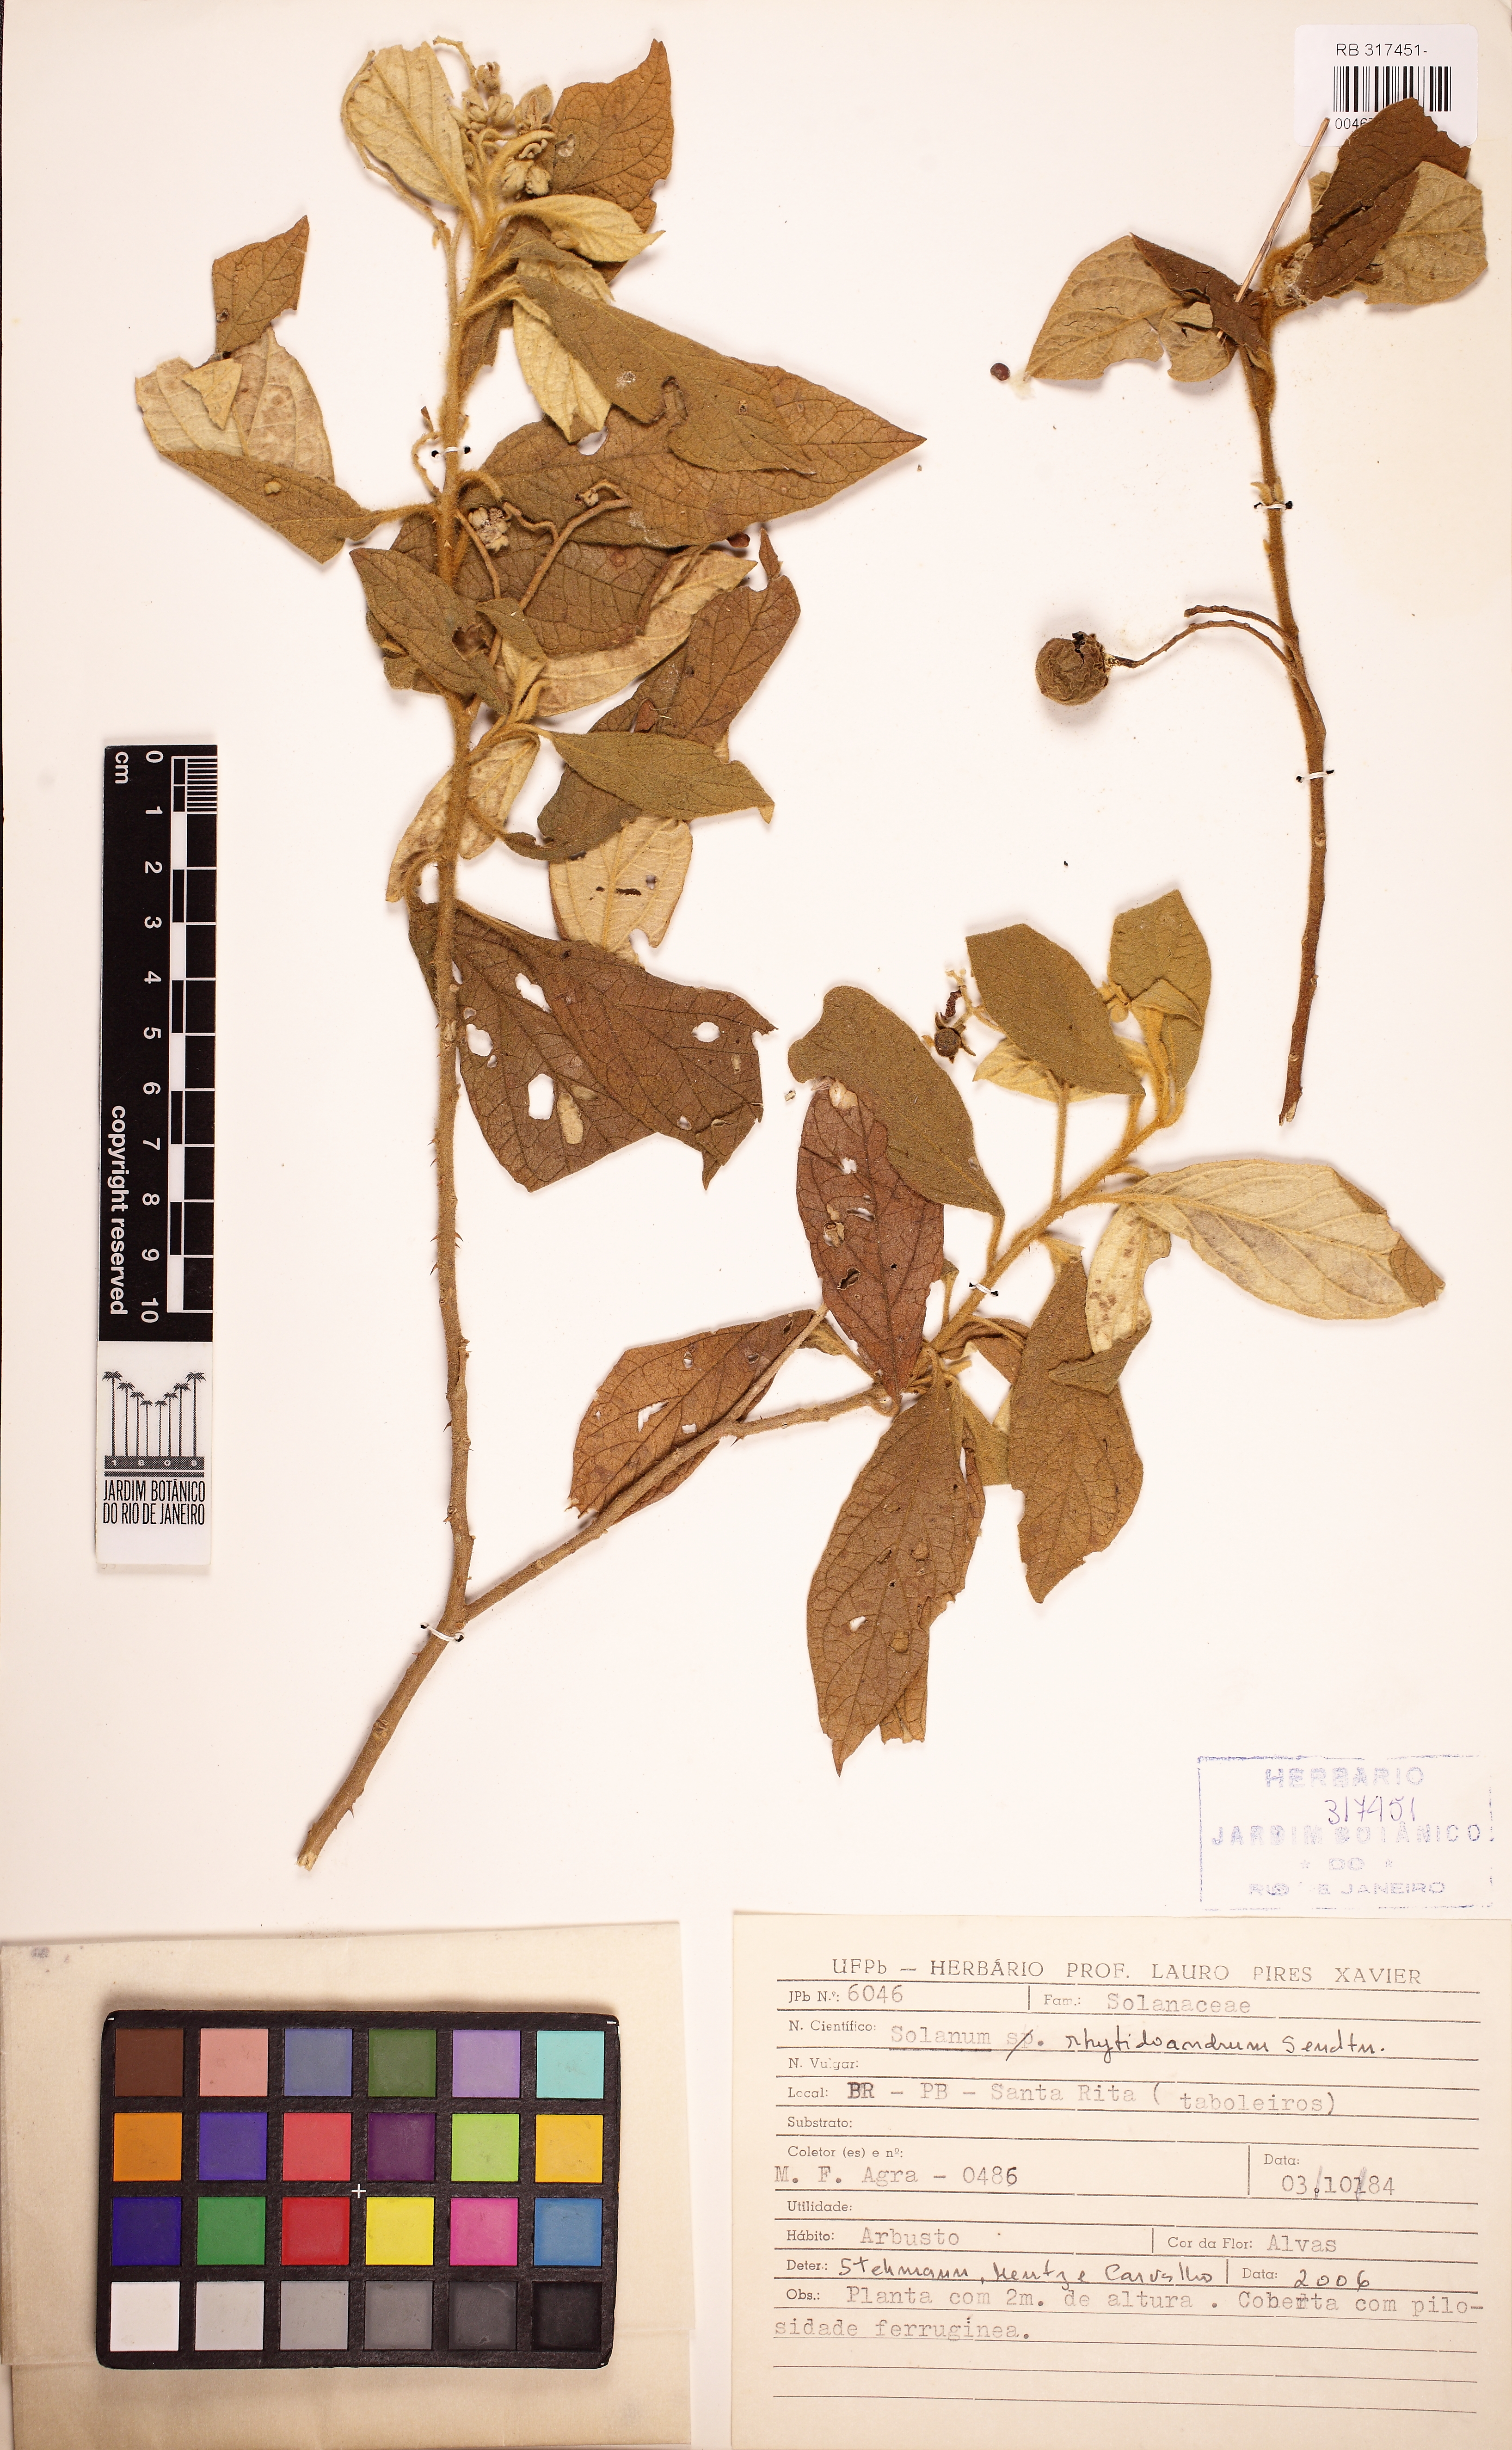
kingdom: Plantae
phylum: Tracheophyta
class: Magnoliopsida
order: Solanales
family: Solanaceae
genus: Solanum
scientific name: Solanum rhytidoandrum
